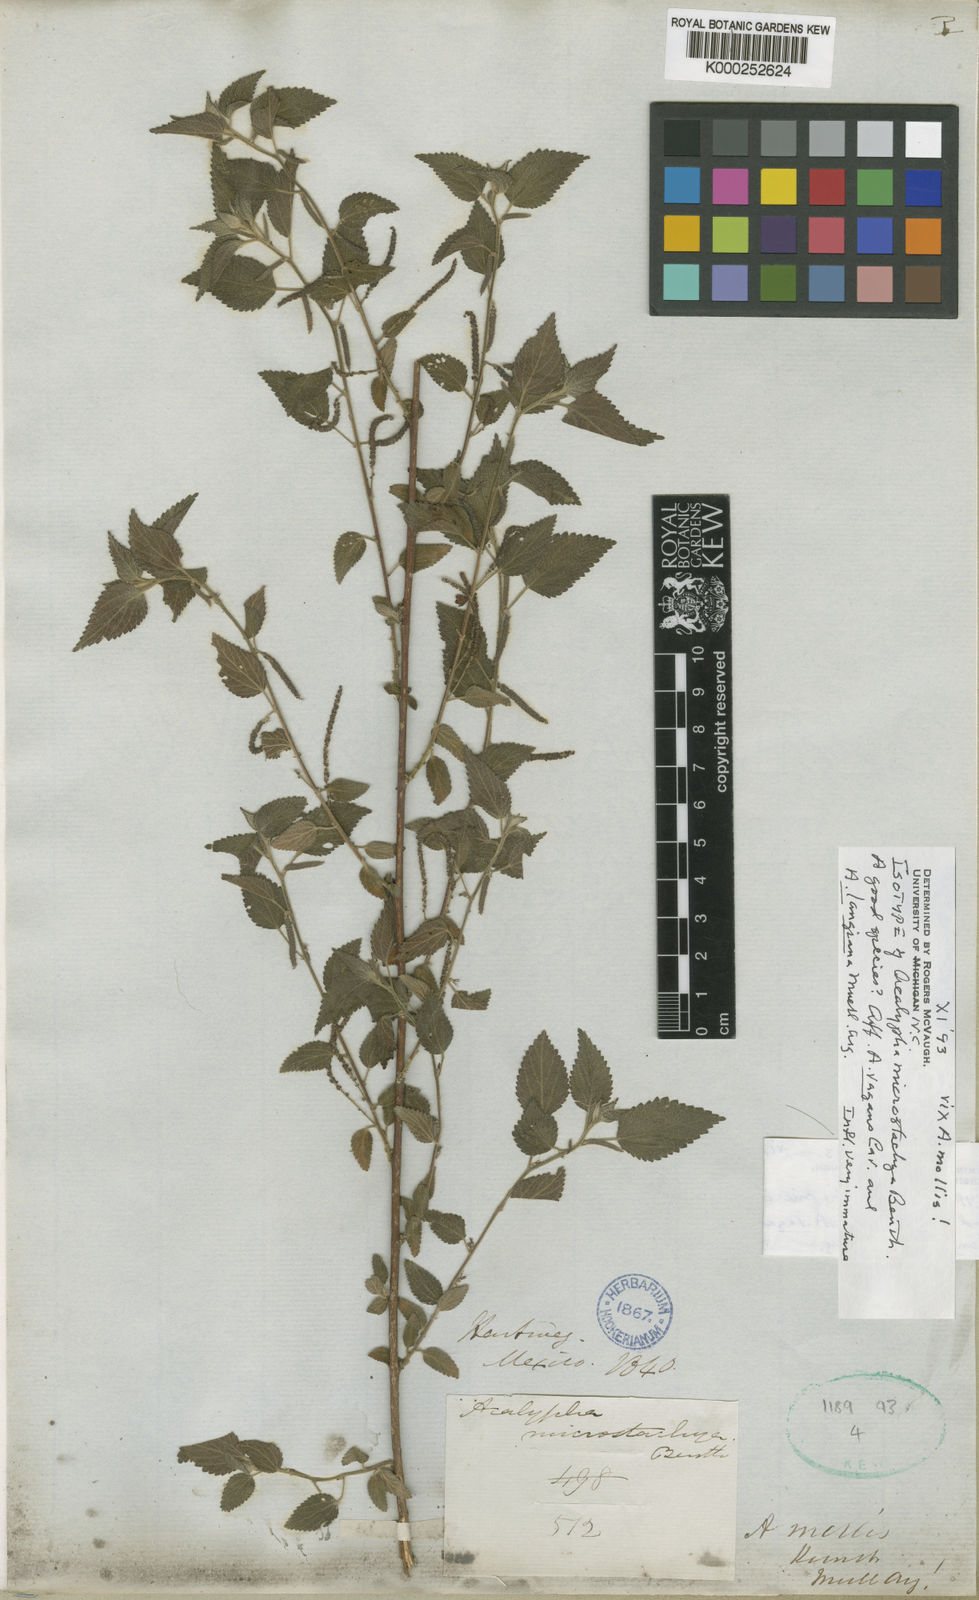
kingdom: Plantae
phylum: Tracheophyta
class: Magnoliopsida
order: Malpighiales
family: Euphorbiaceae
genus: Acalypha
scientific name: Acalypha mollis
